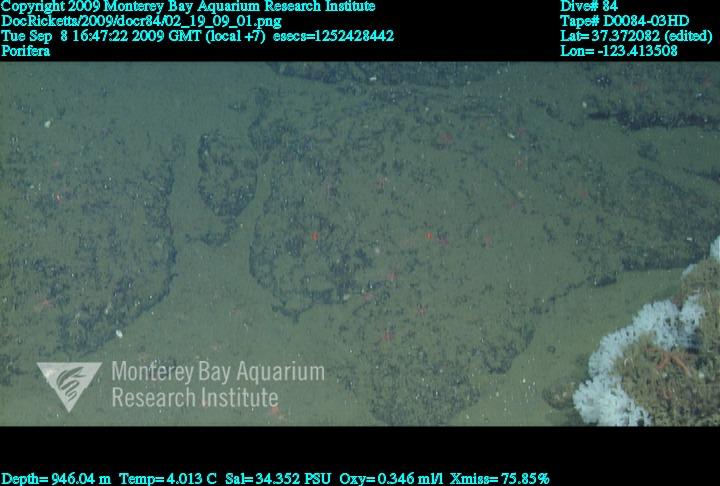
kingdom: Animalia
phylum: Porifera
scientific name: Porifera
